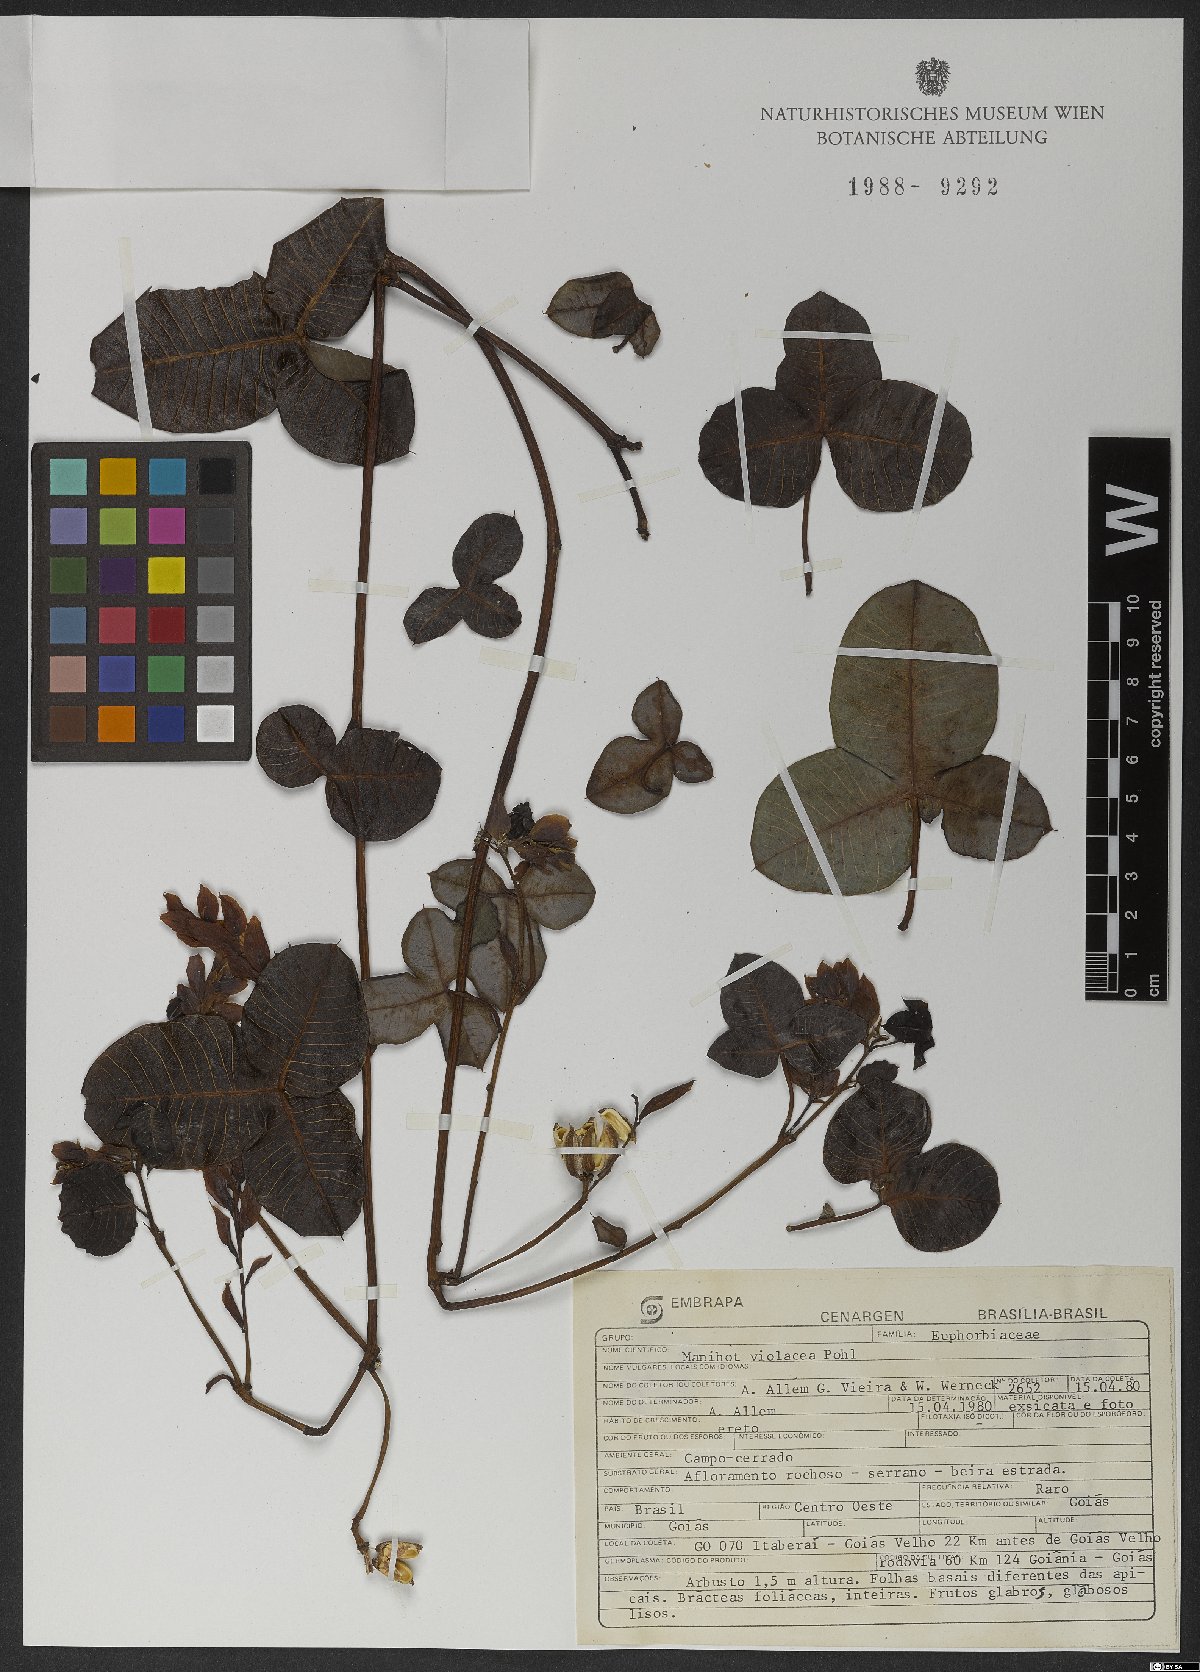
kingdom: Plantae
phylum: Tracheophyta
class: Magnoliopsida
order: Malpighiales
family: Euphorbiaceae
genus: Manihot
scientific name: Manihot violacea
